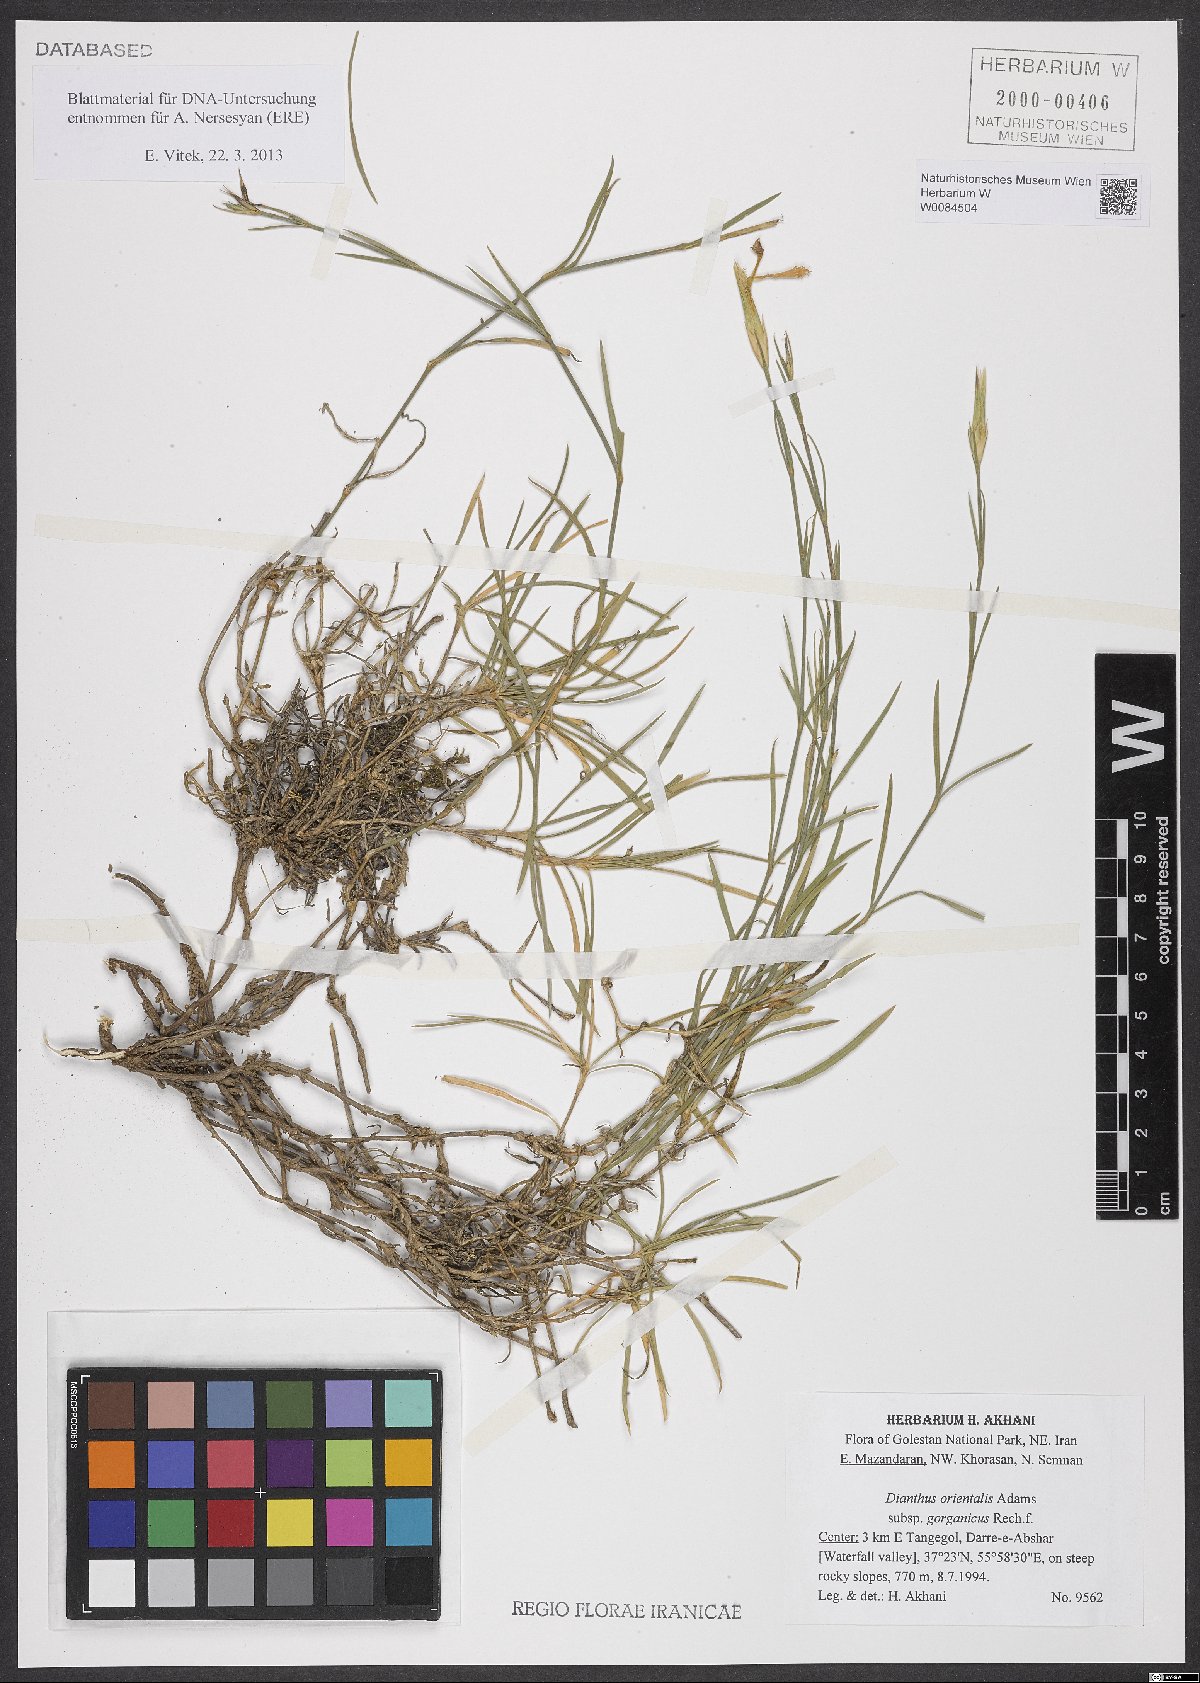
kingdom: Plantae
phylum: Tracheophyta
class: Magnoliopsida
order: Caryophyllales
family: Caryophyllaceae
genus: Dianthus
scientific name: Dianthus orientalis
